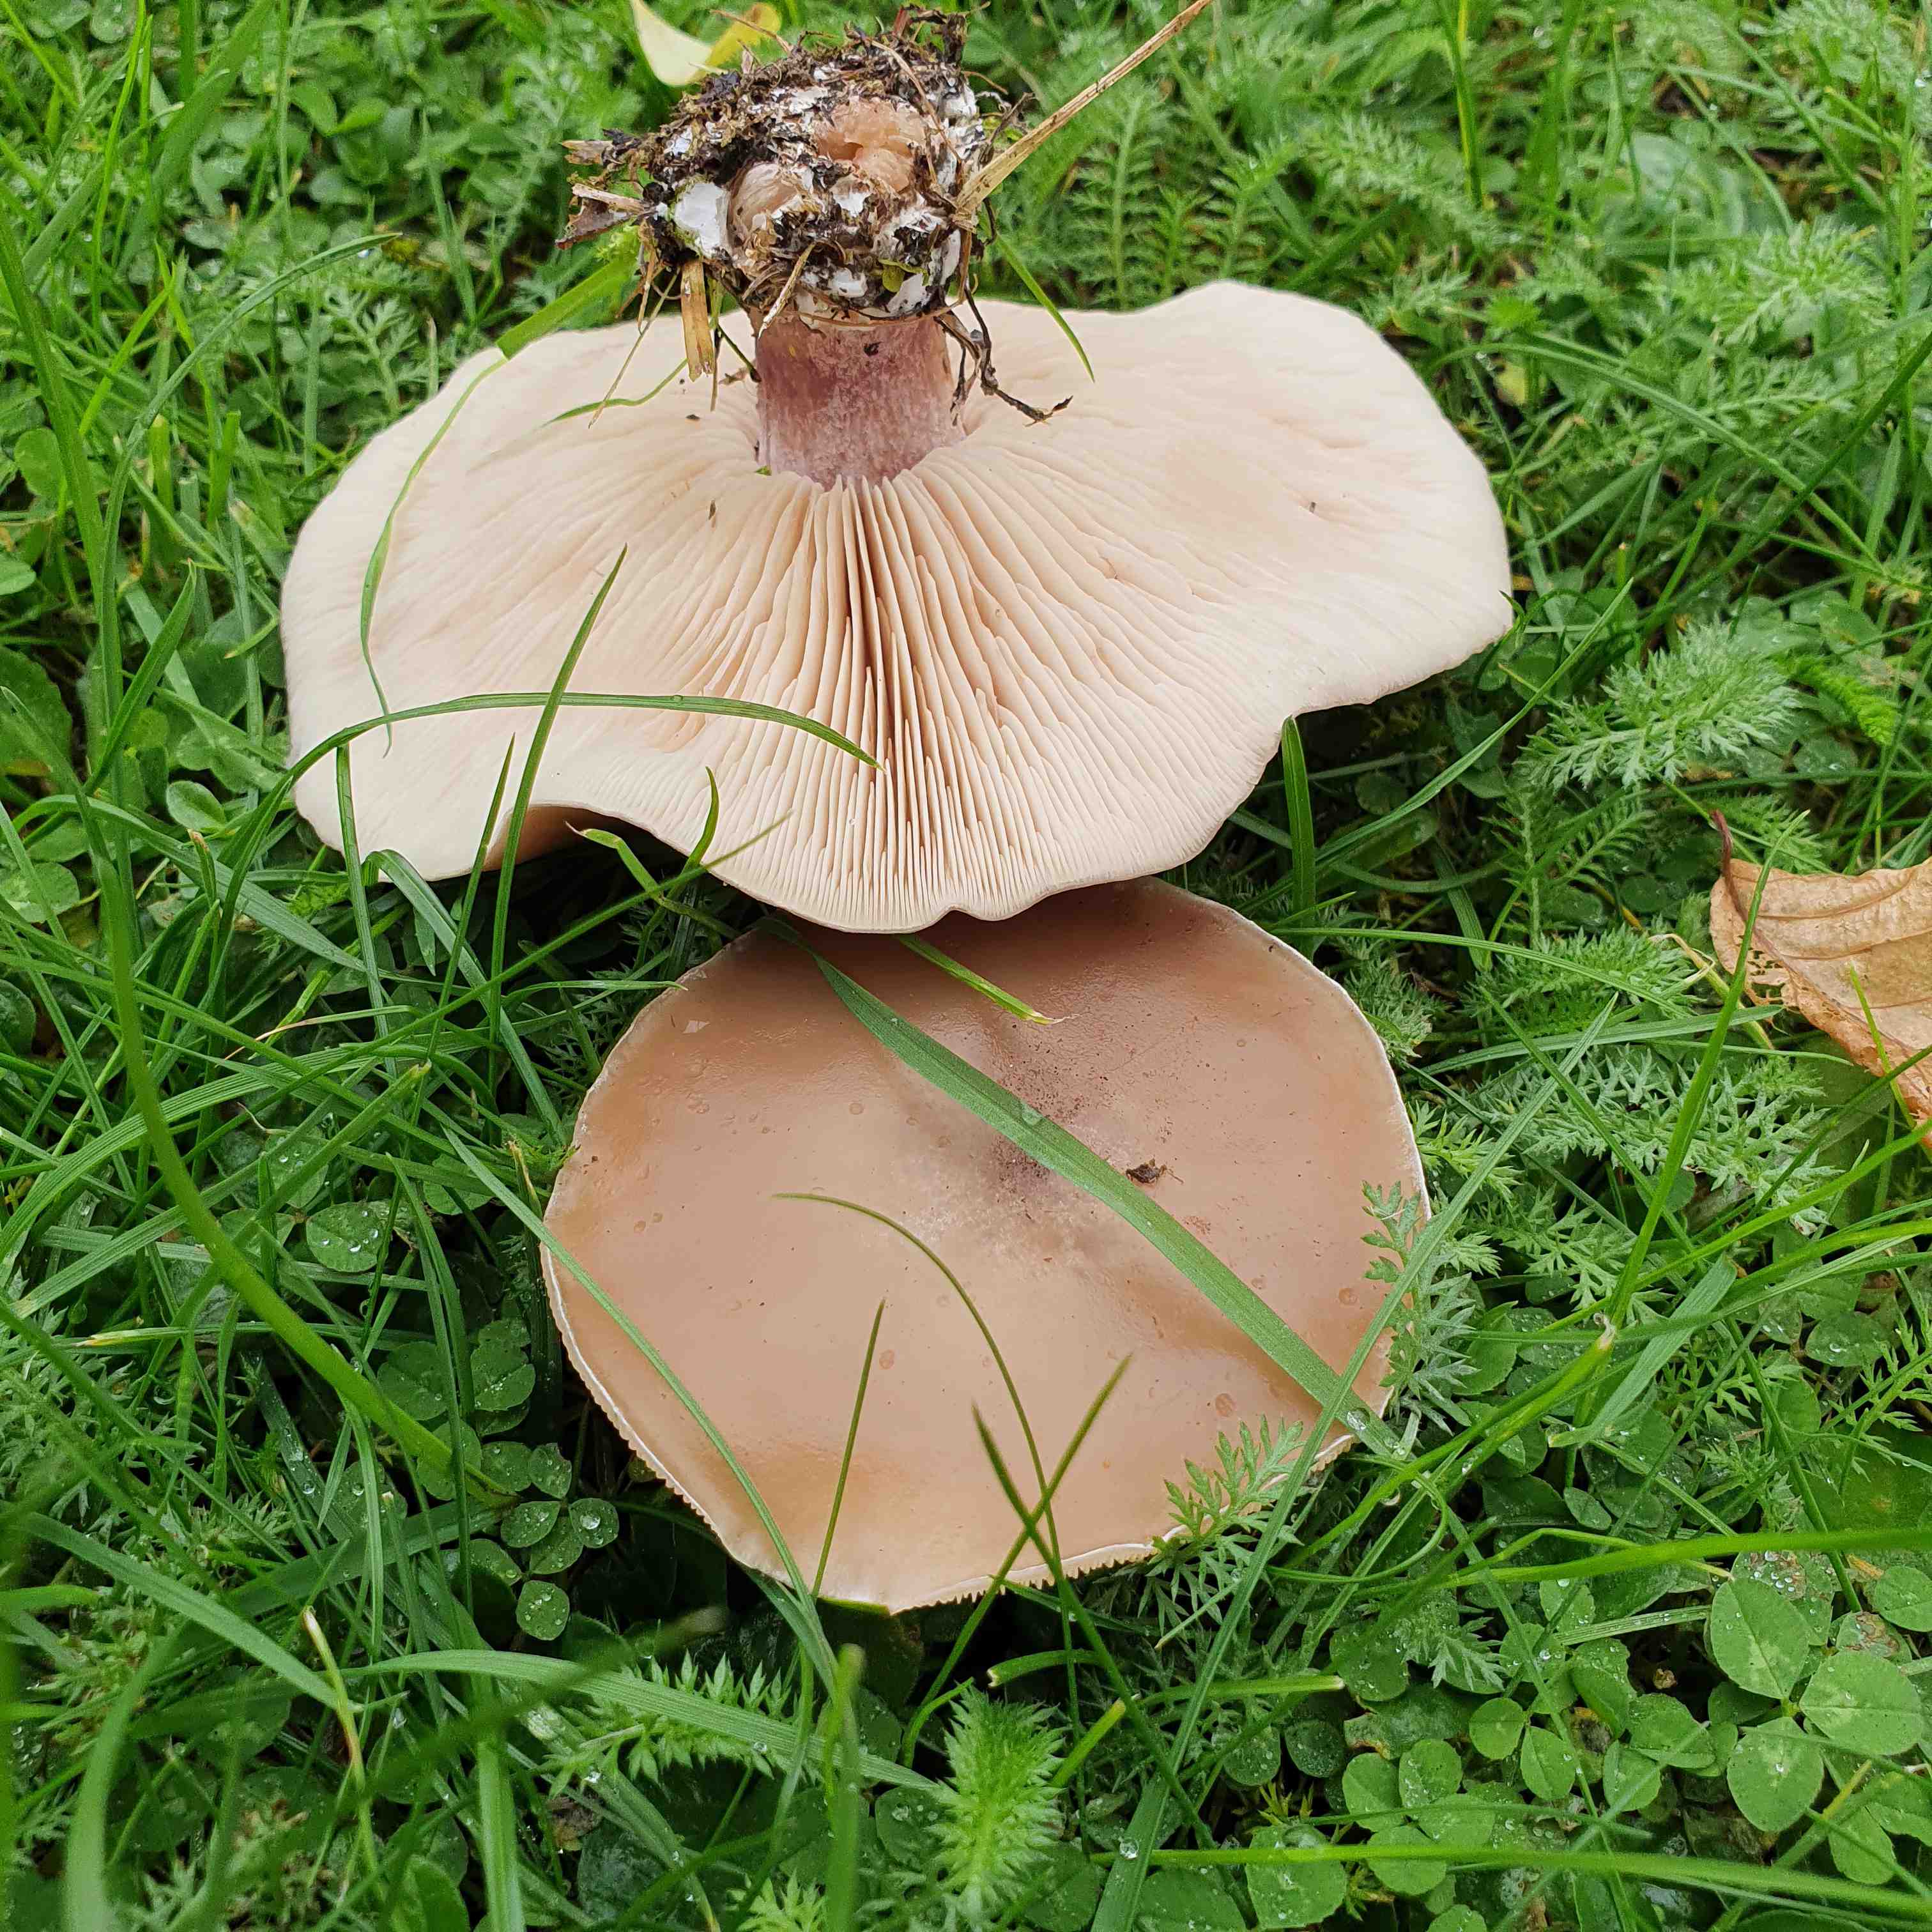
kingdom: Fungi
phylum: Basidiomycota
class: Agaricomycetes
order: Agaricales
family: Tricholomataceae
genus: Lepista
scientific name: Lepista personata
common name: bleg hekseringshat
